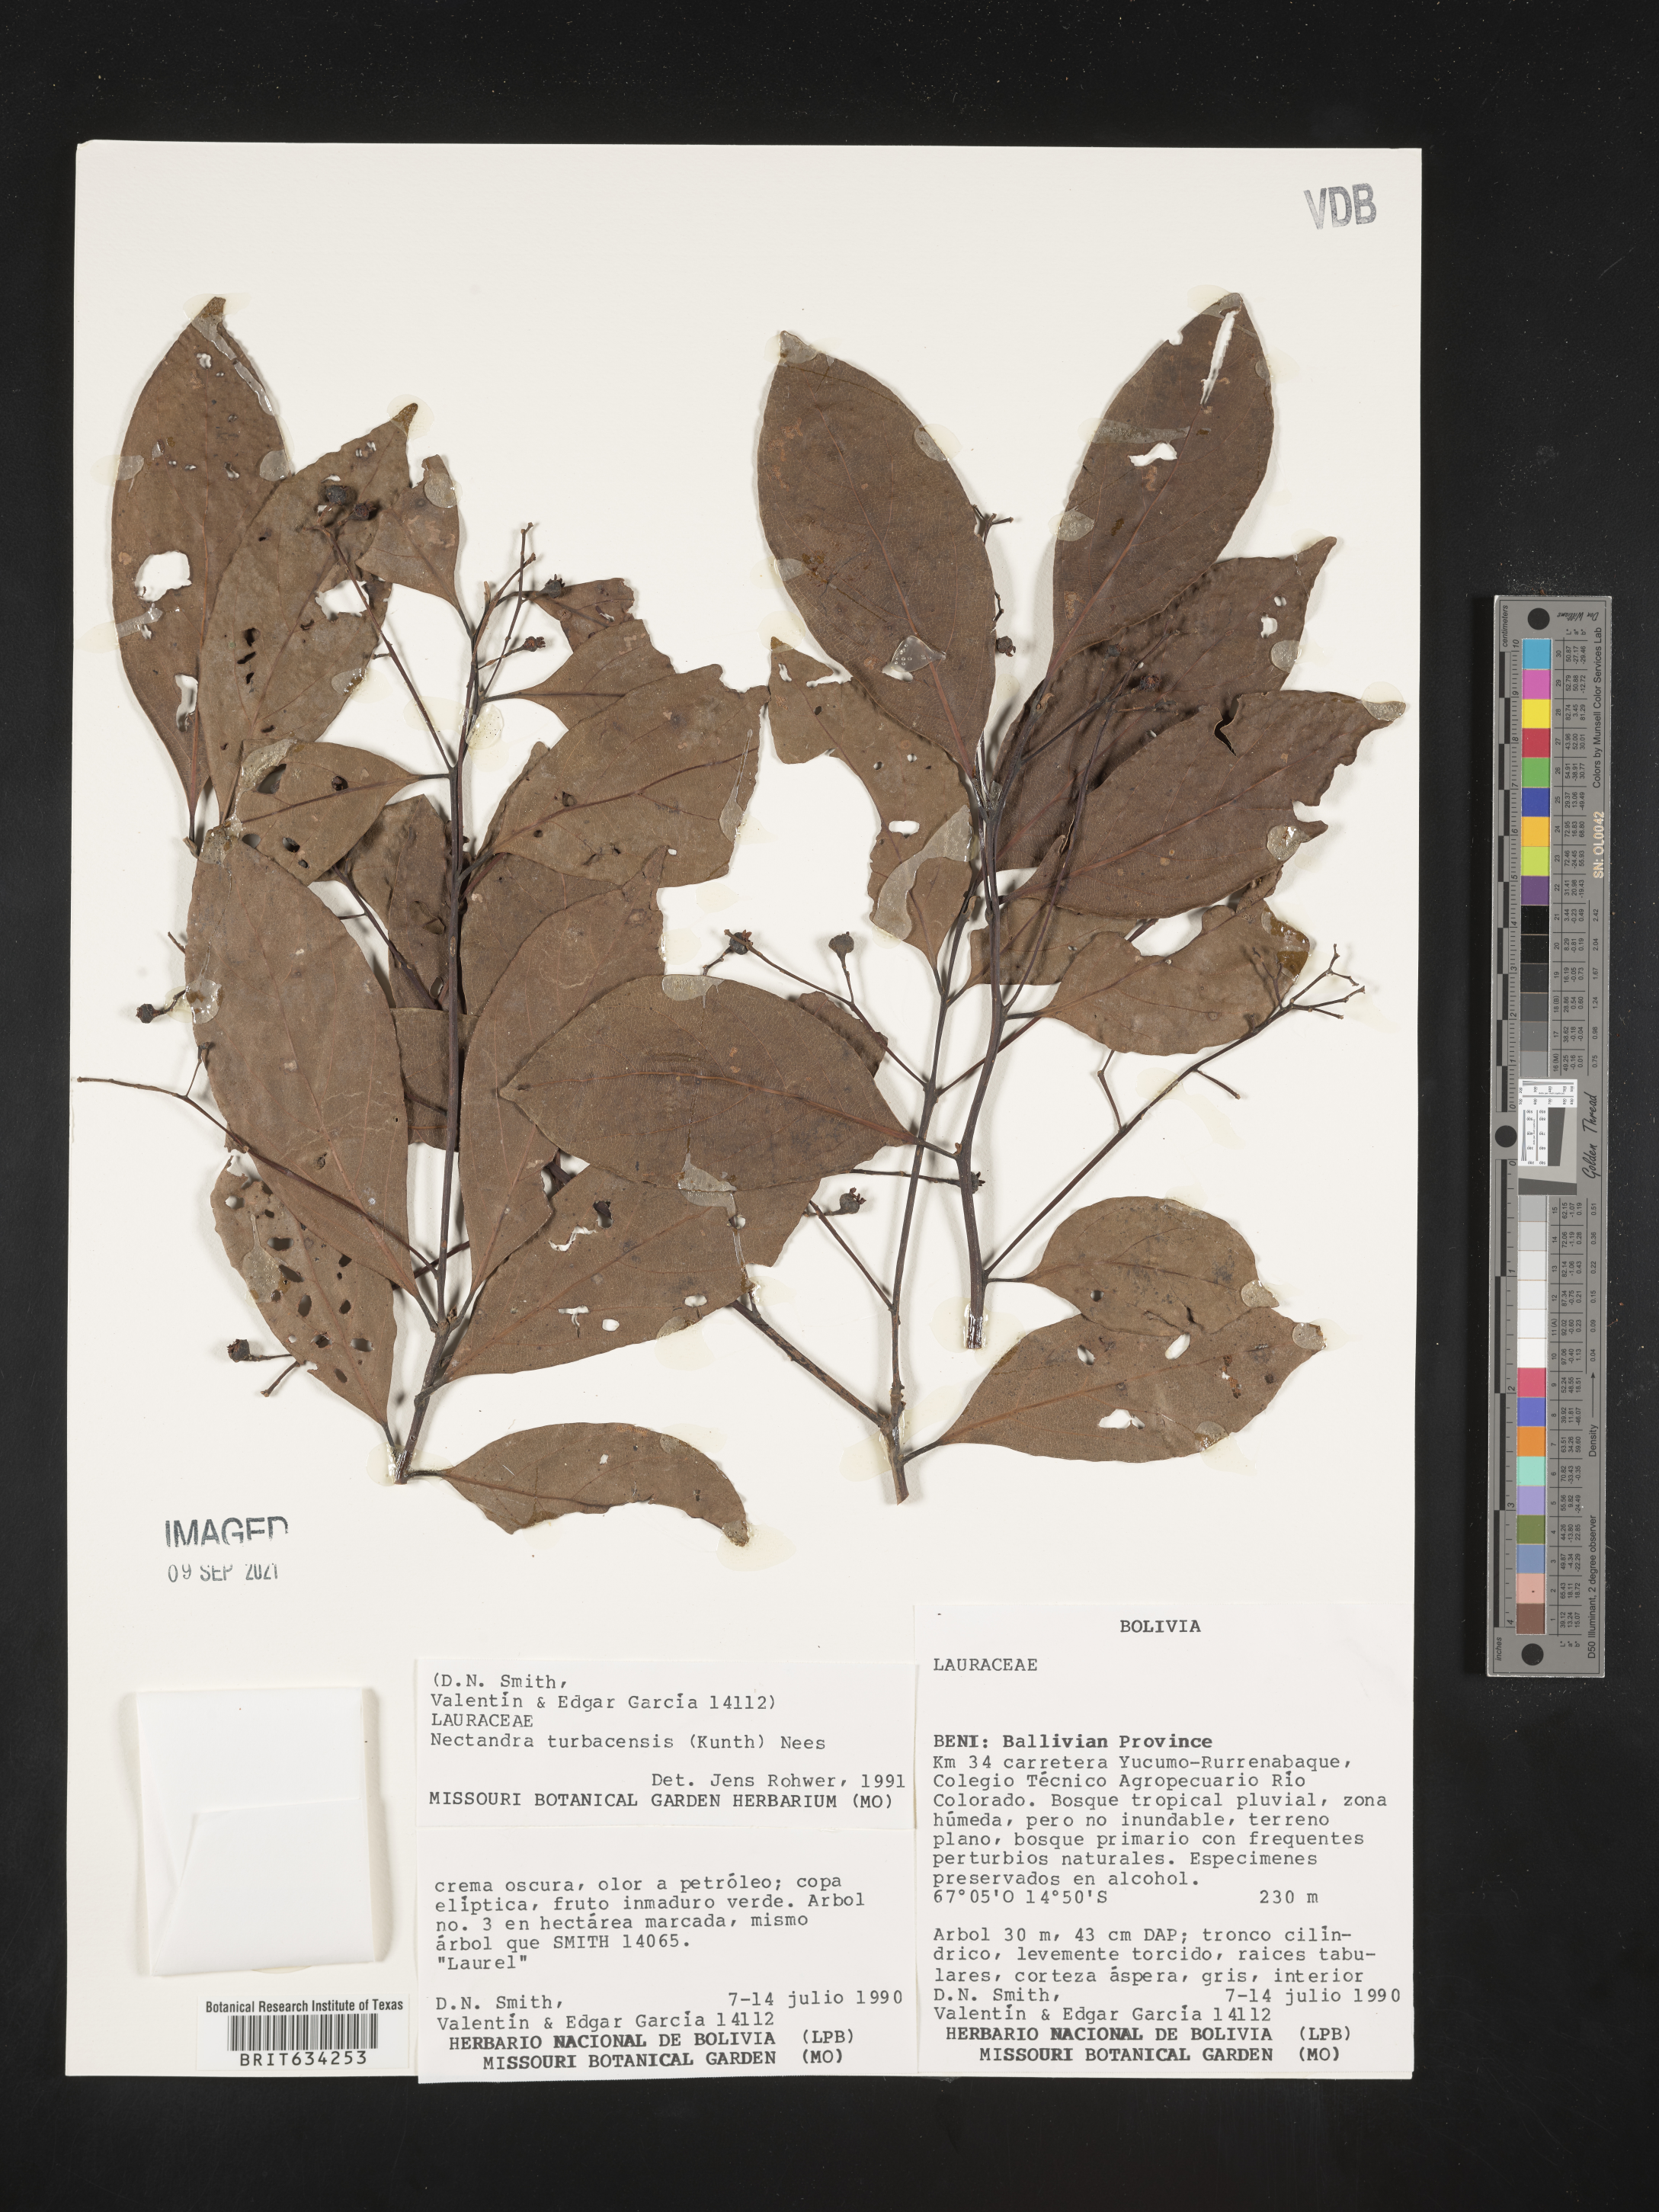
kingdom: Plantae
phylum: Tracheophyta
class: Magnoliopsida
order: Laurales
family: Lauraceae
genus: Nectandra
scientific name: Nectandra
